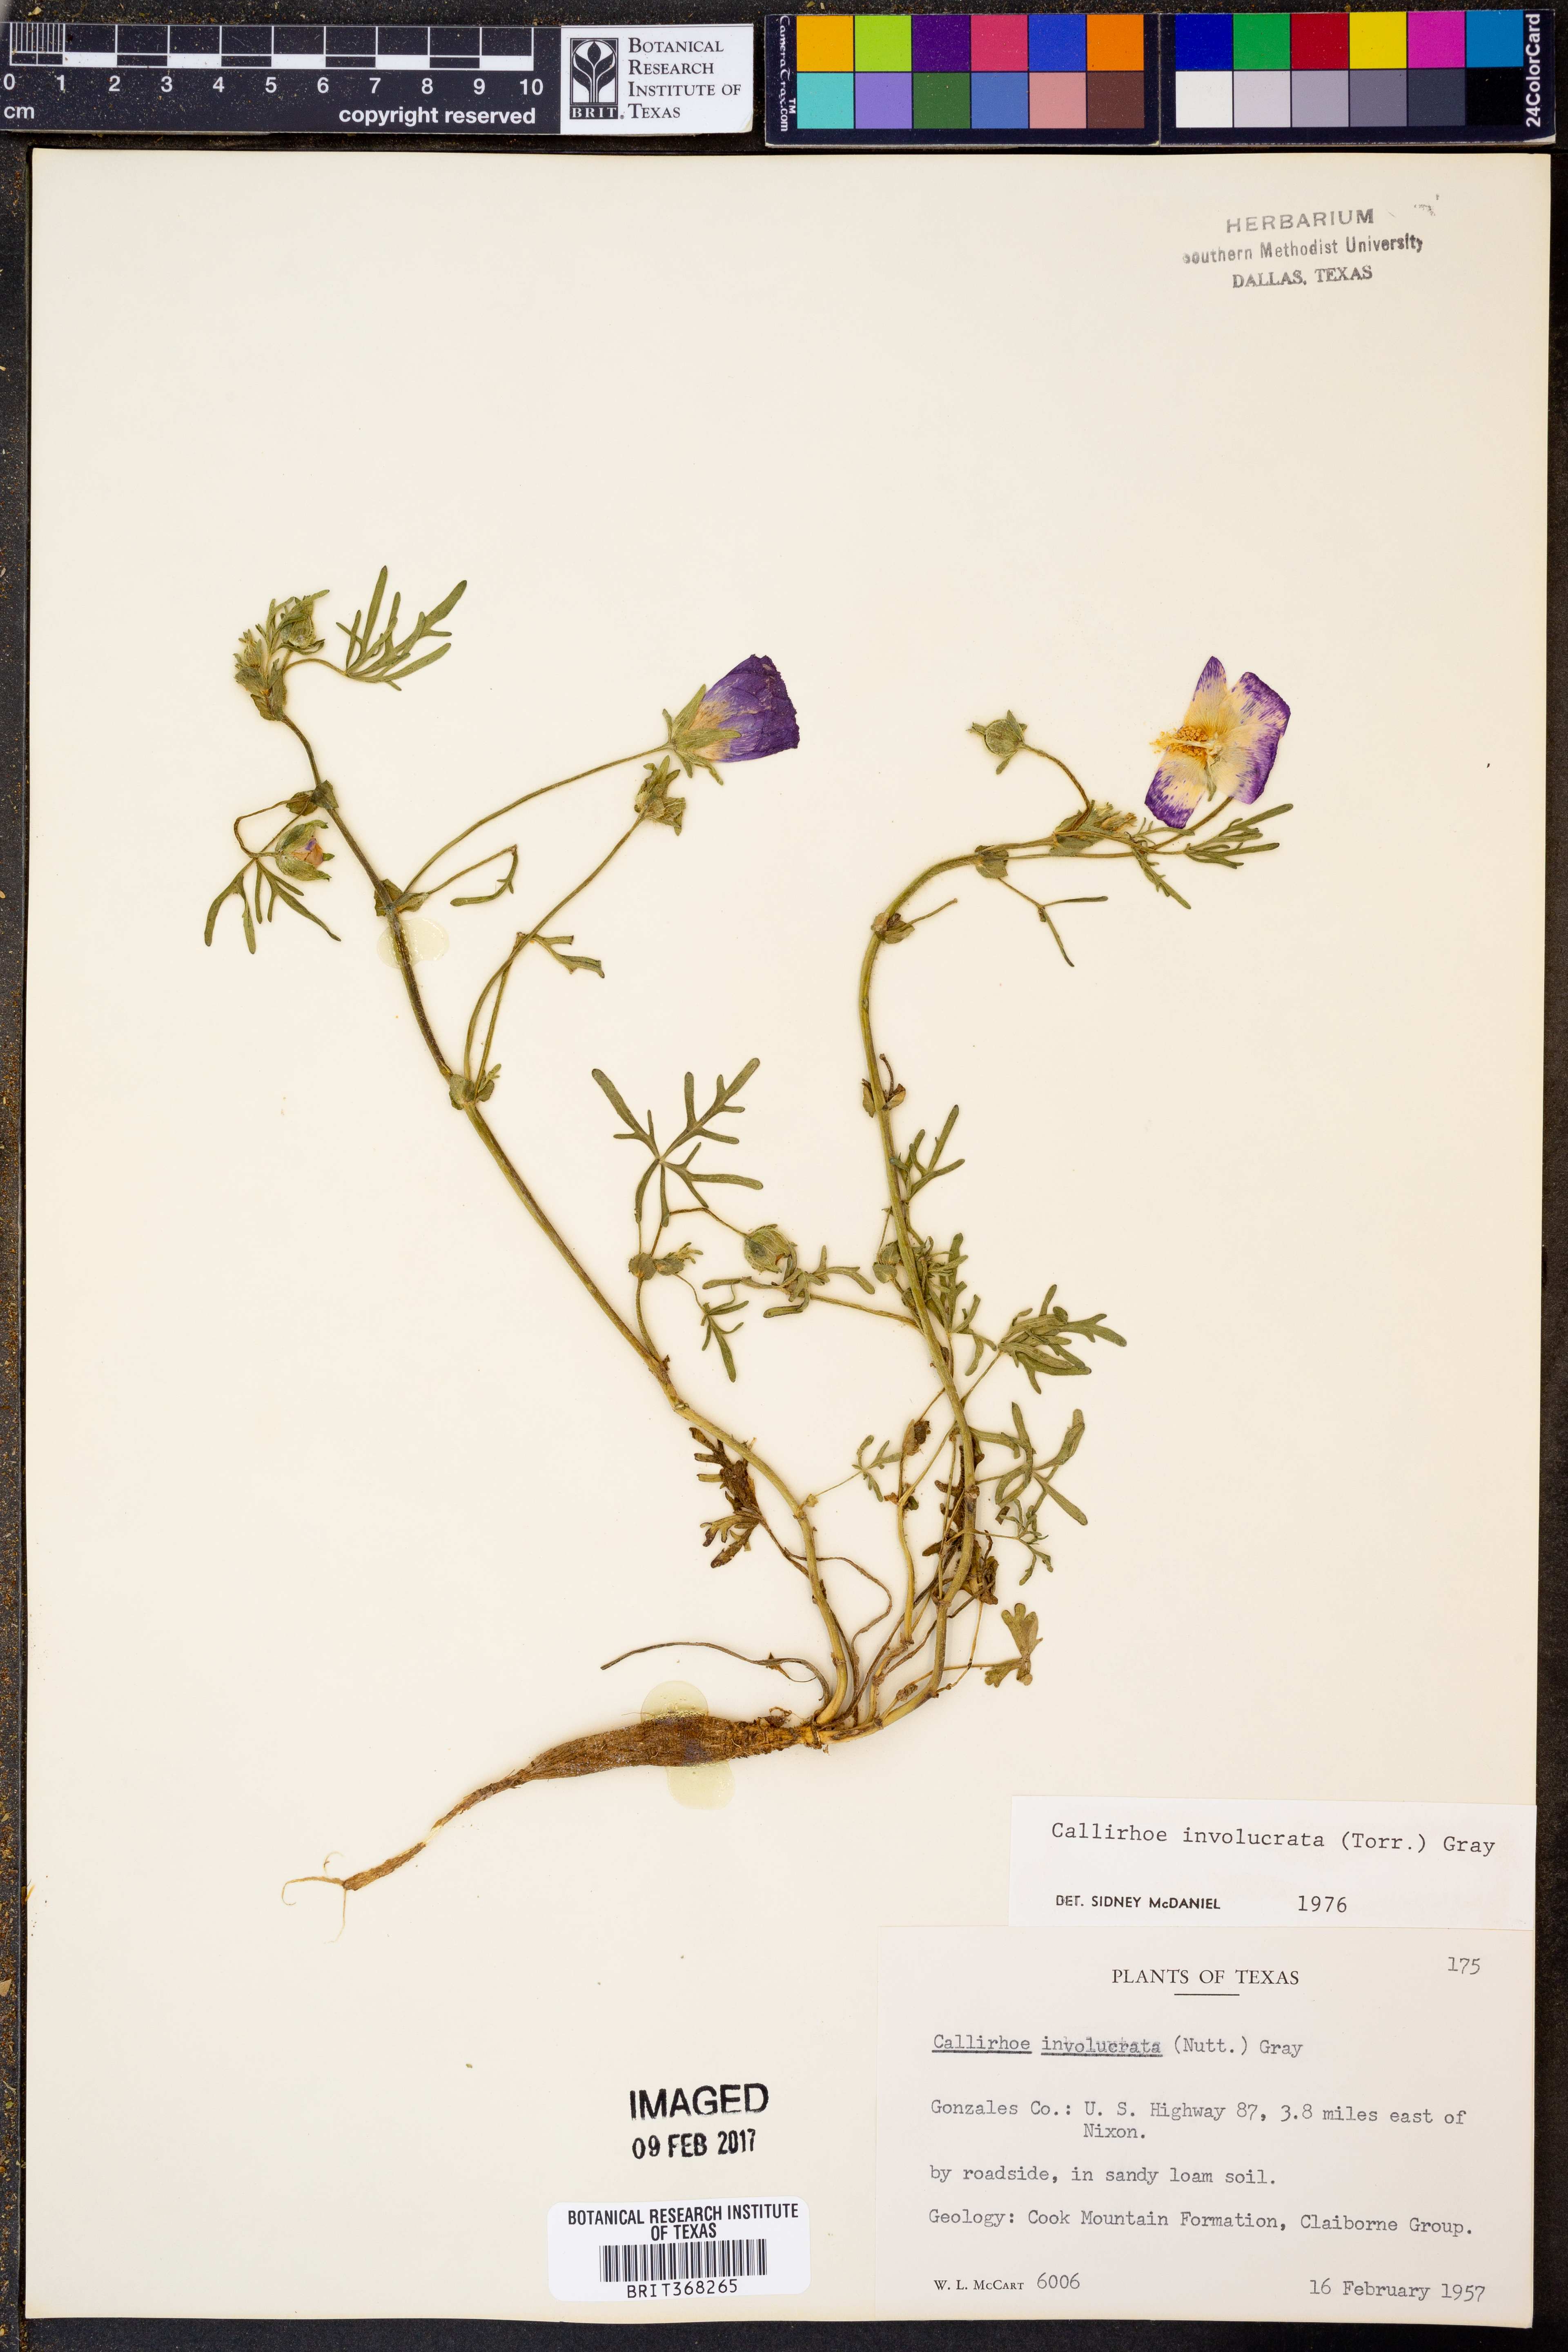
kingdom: Plantae
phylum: Tracheophyta
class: Magnoliopsida
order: Malvales
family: Malvaceae
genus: Callirhoe
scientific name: Callirhoe involucrata
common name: Purple poppy-mallow
